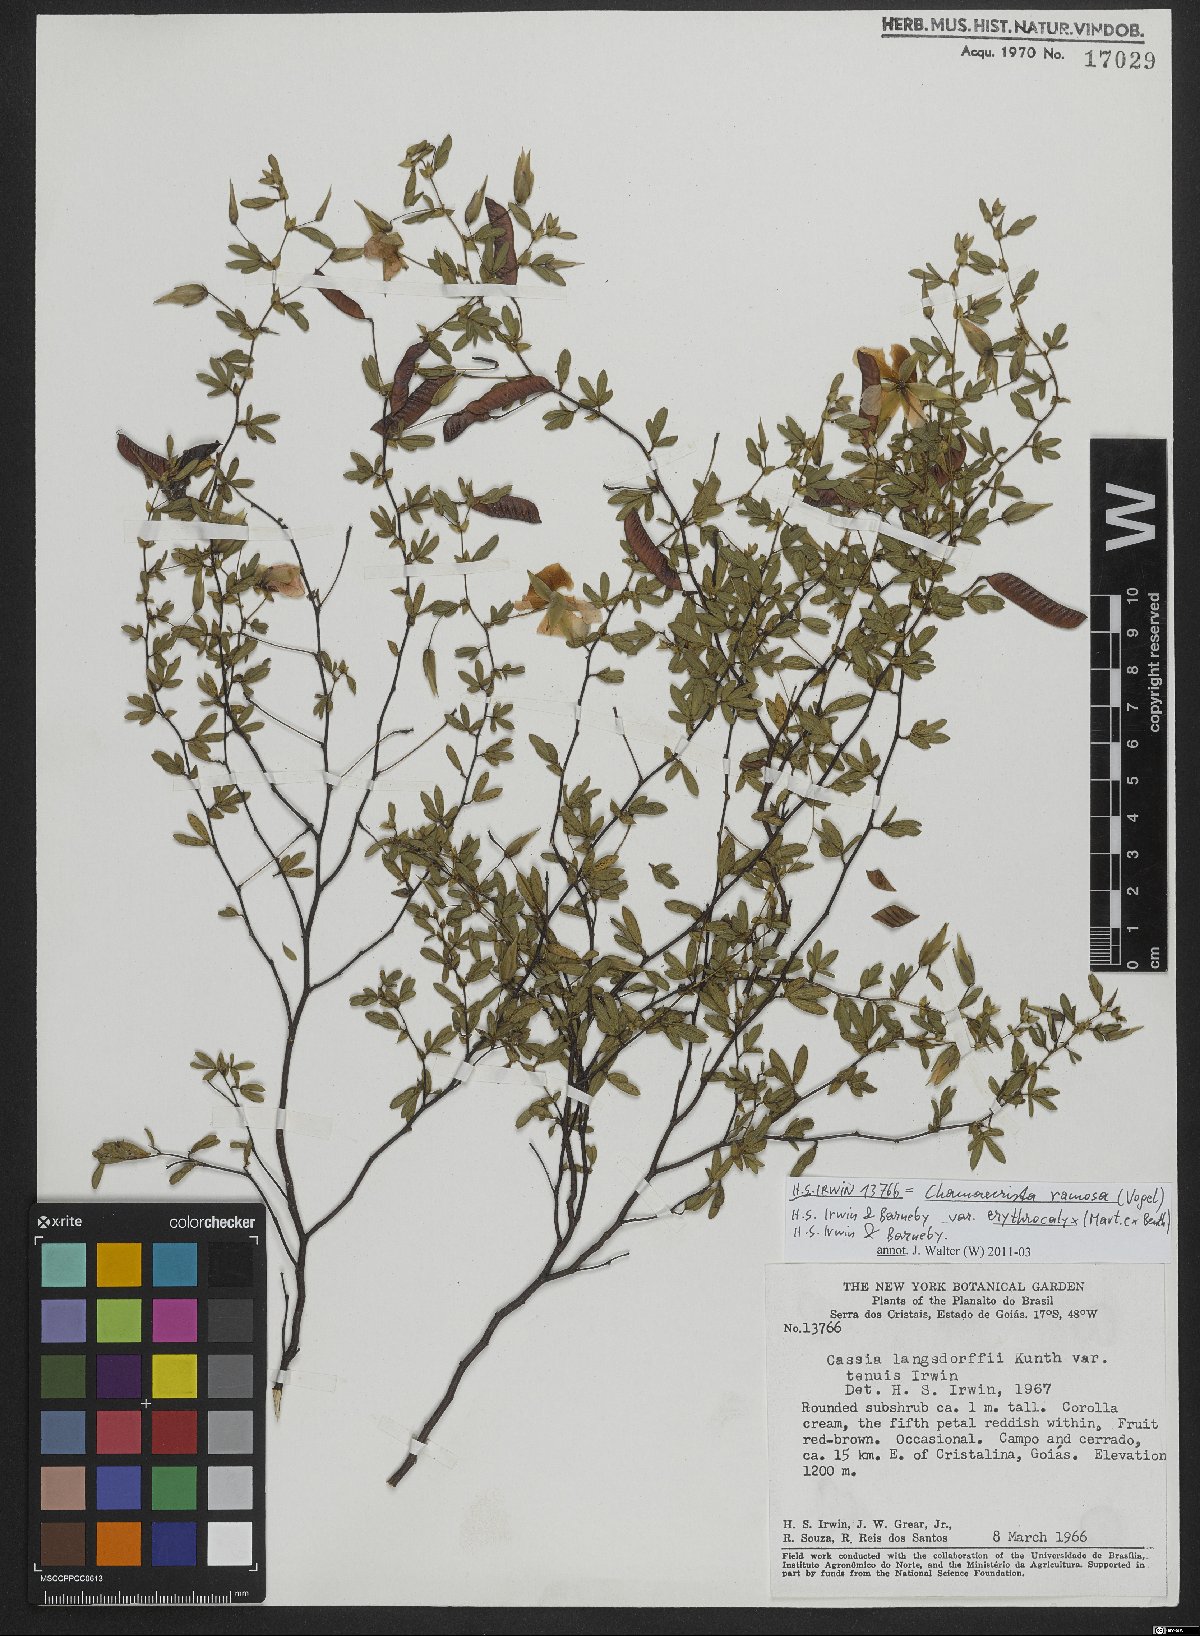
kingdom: Plantae
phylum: Tracheophyta
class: Magnoliopsida
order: Fabales
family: Fabaceae
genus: Chamaecrista
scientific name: Chamaecrista ramosa
